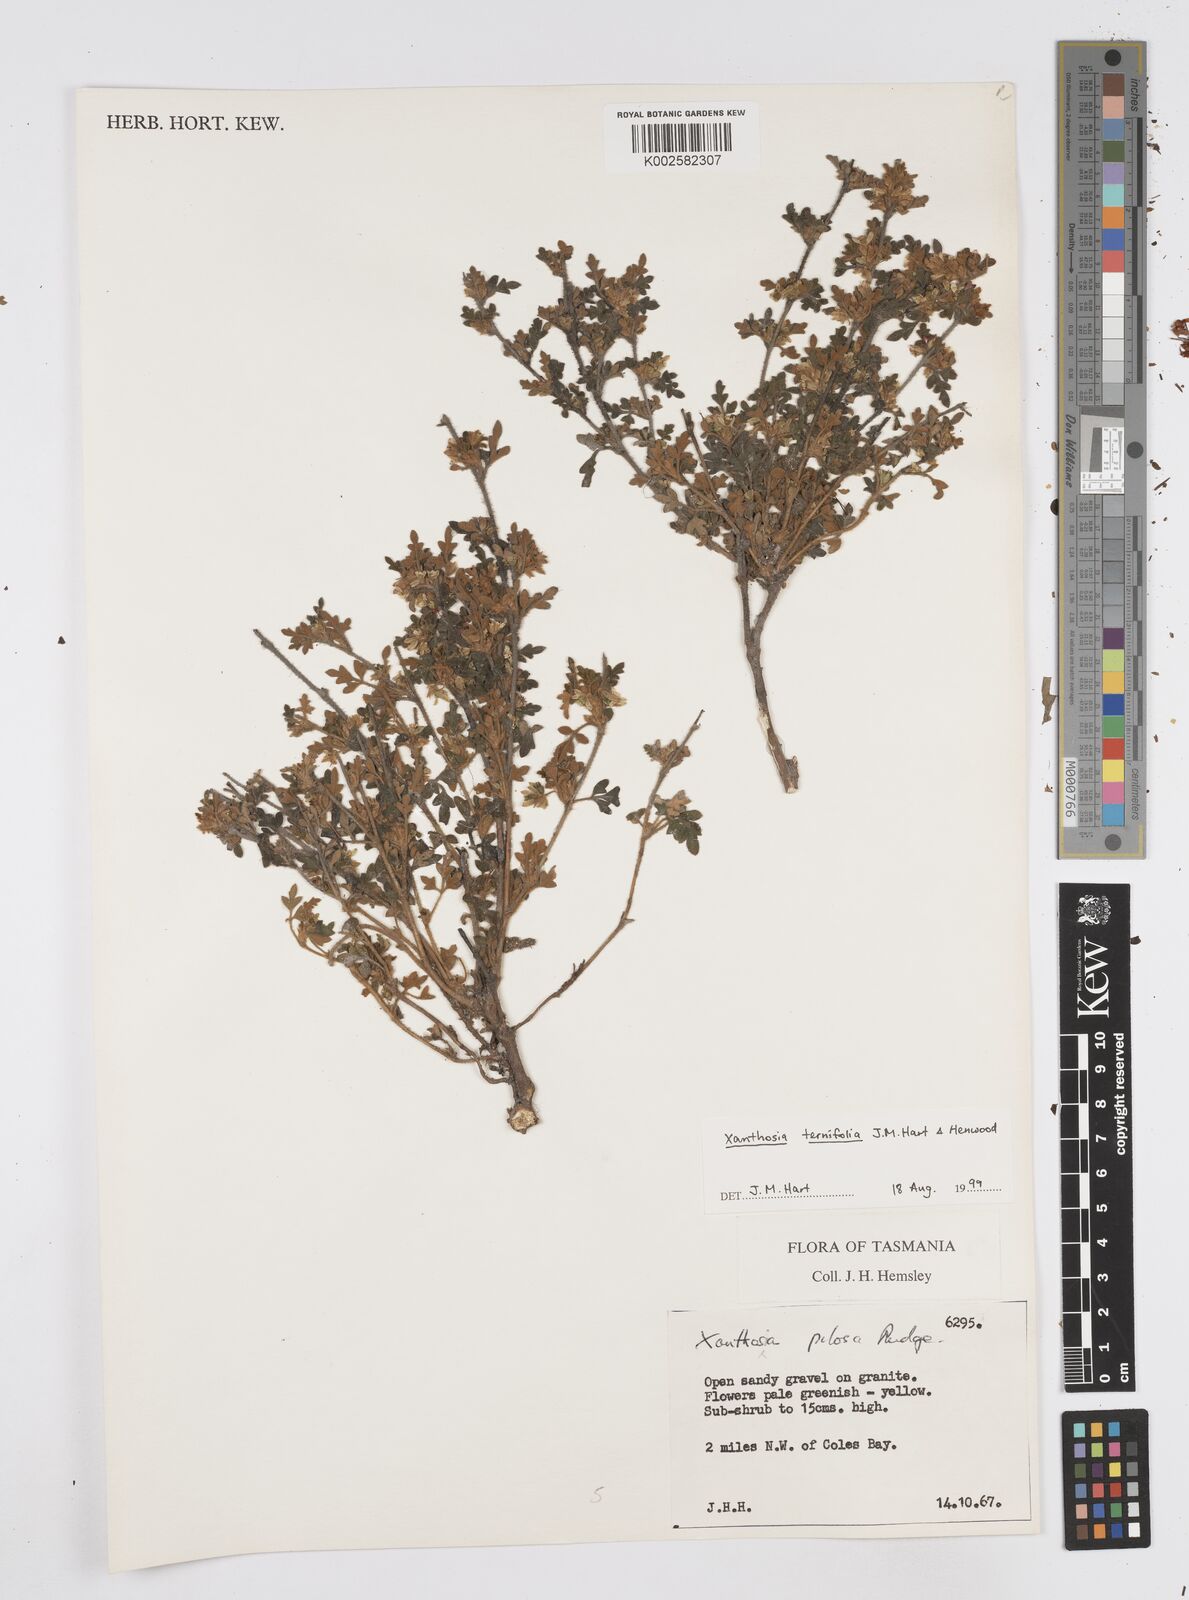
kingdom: Plantae
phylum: Tracheophyta
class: Magnoliopsida
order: Apiales
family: Apiaceae
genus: Xanthosia
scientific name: Xanthosia ternifolia
